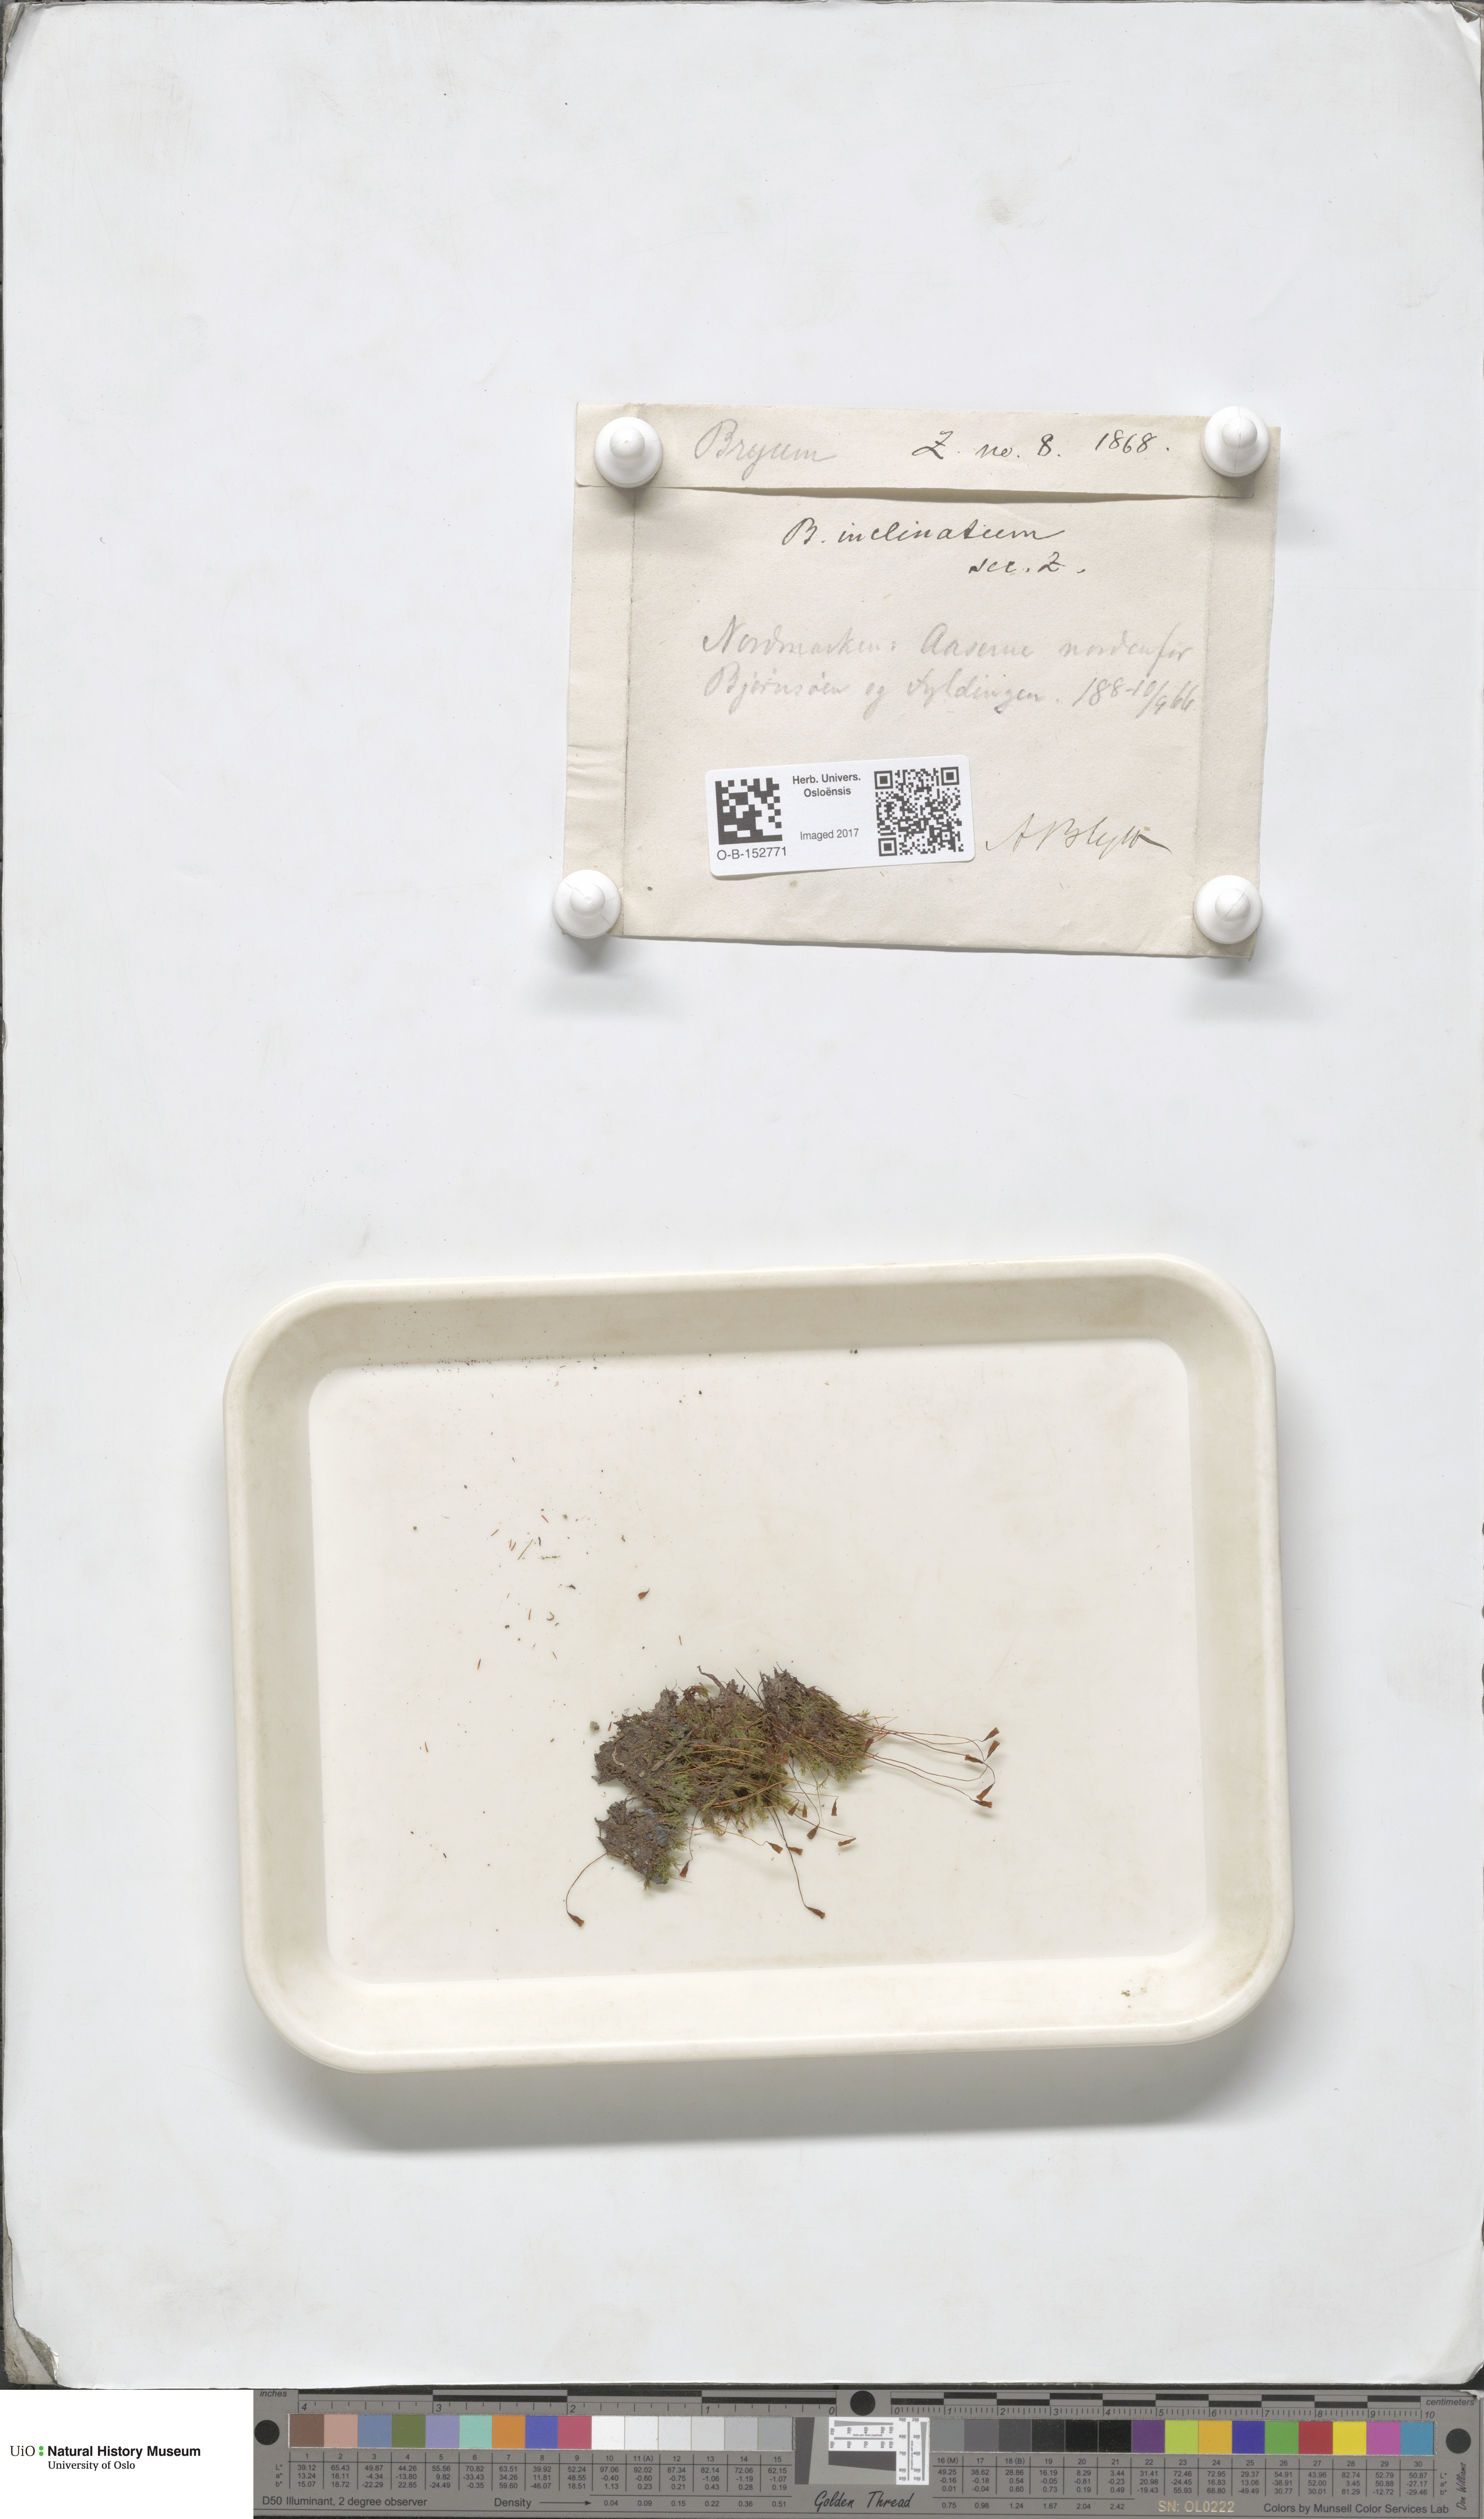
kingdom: Plantae
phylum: Bryophyta
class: Bryopsida
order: Bryales
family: Bryaceae
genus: Ptychostomum
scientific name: Ptychostomum inclinatum
